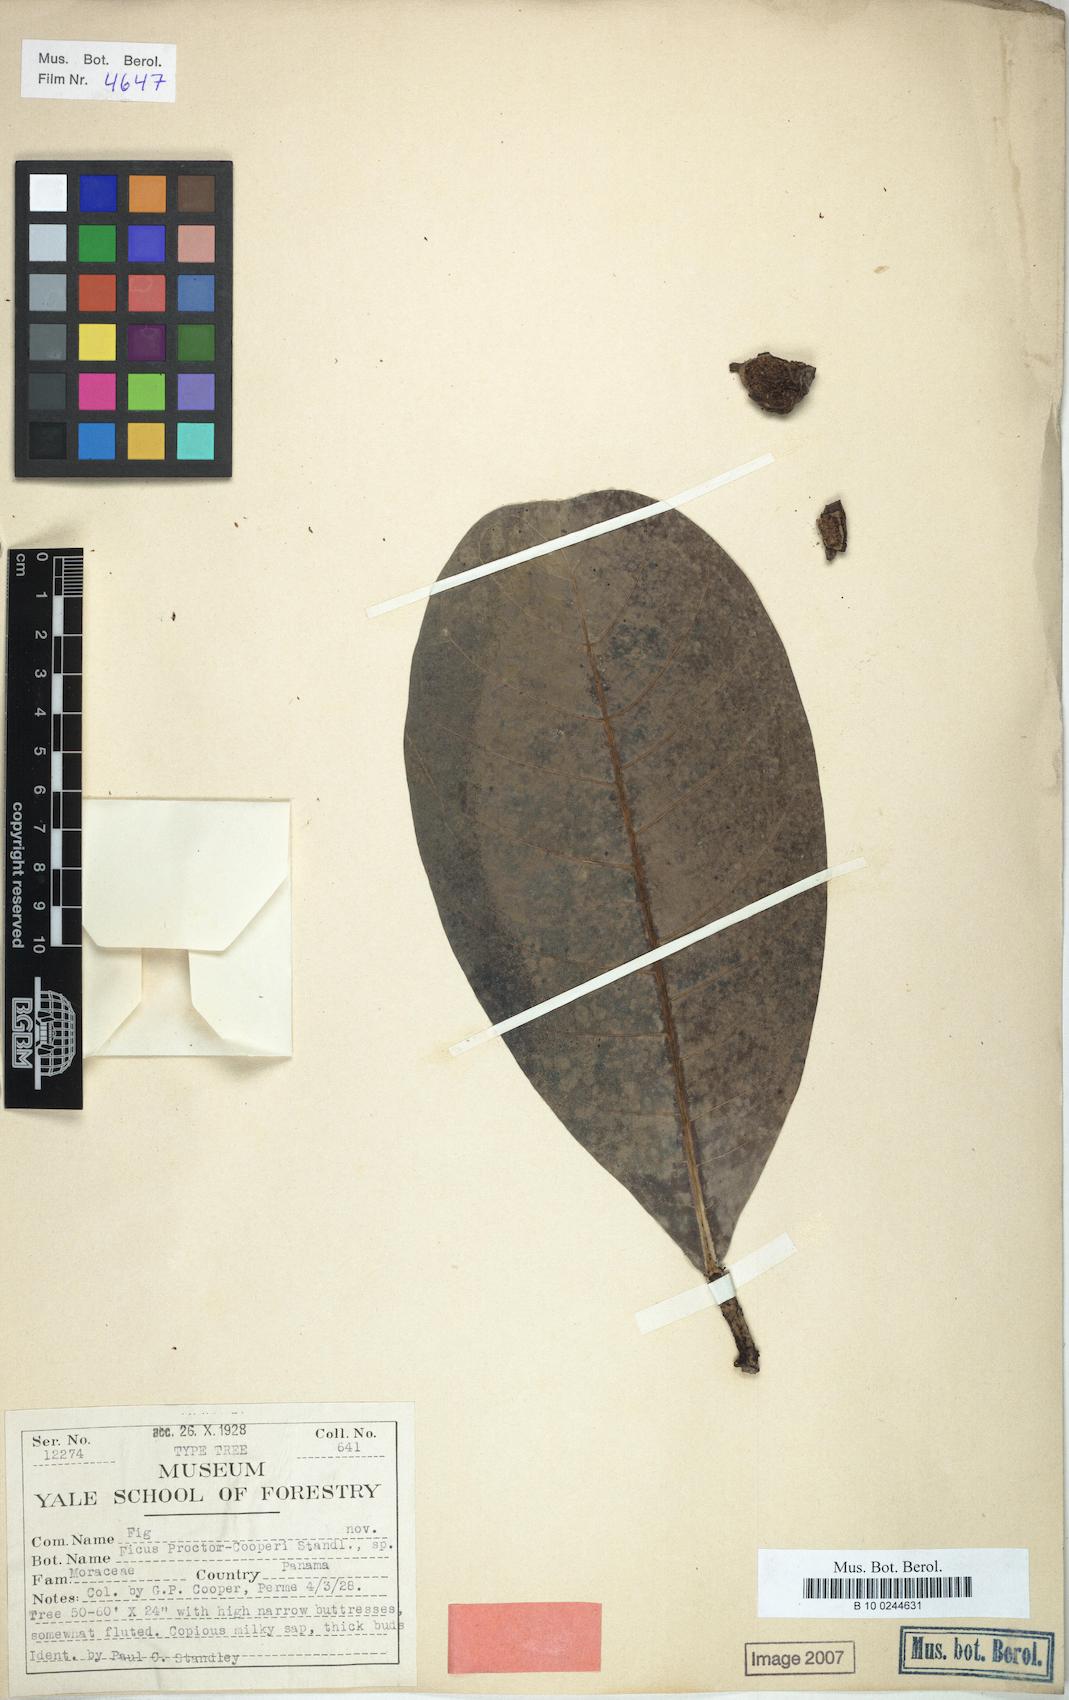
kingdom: Plantae
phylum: Tracheophyta
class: Magnoliopsida
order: Rosales
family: Moraceae
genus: Ficus
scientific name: Ficus obtusifolia
